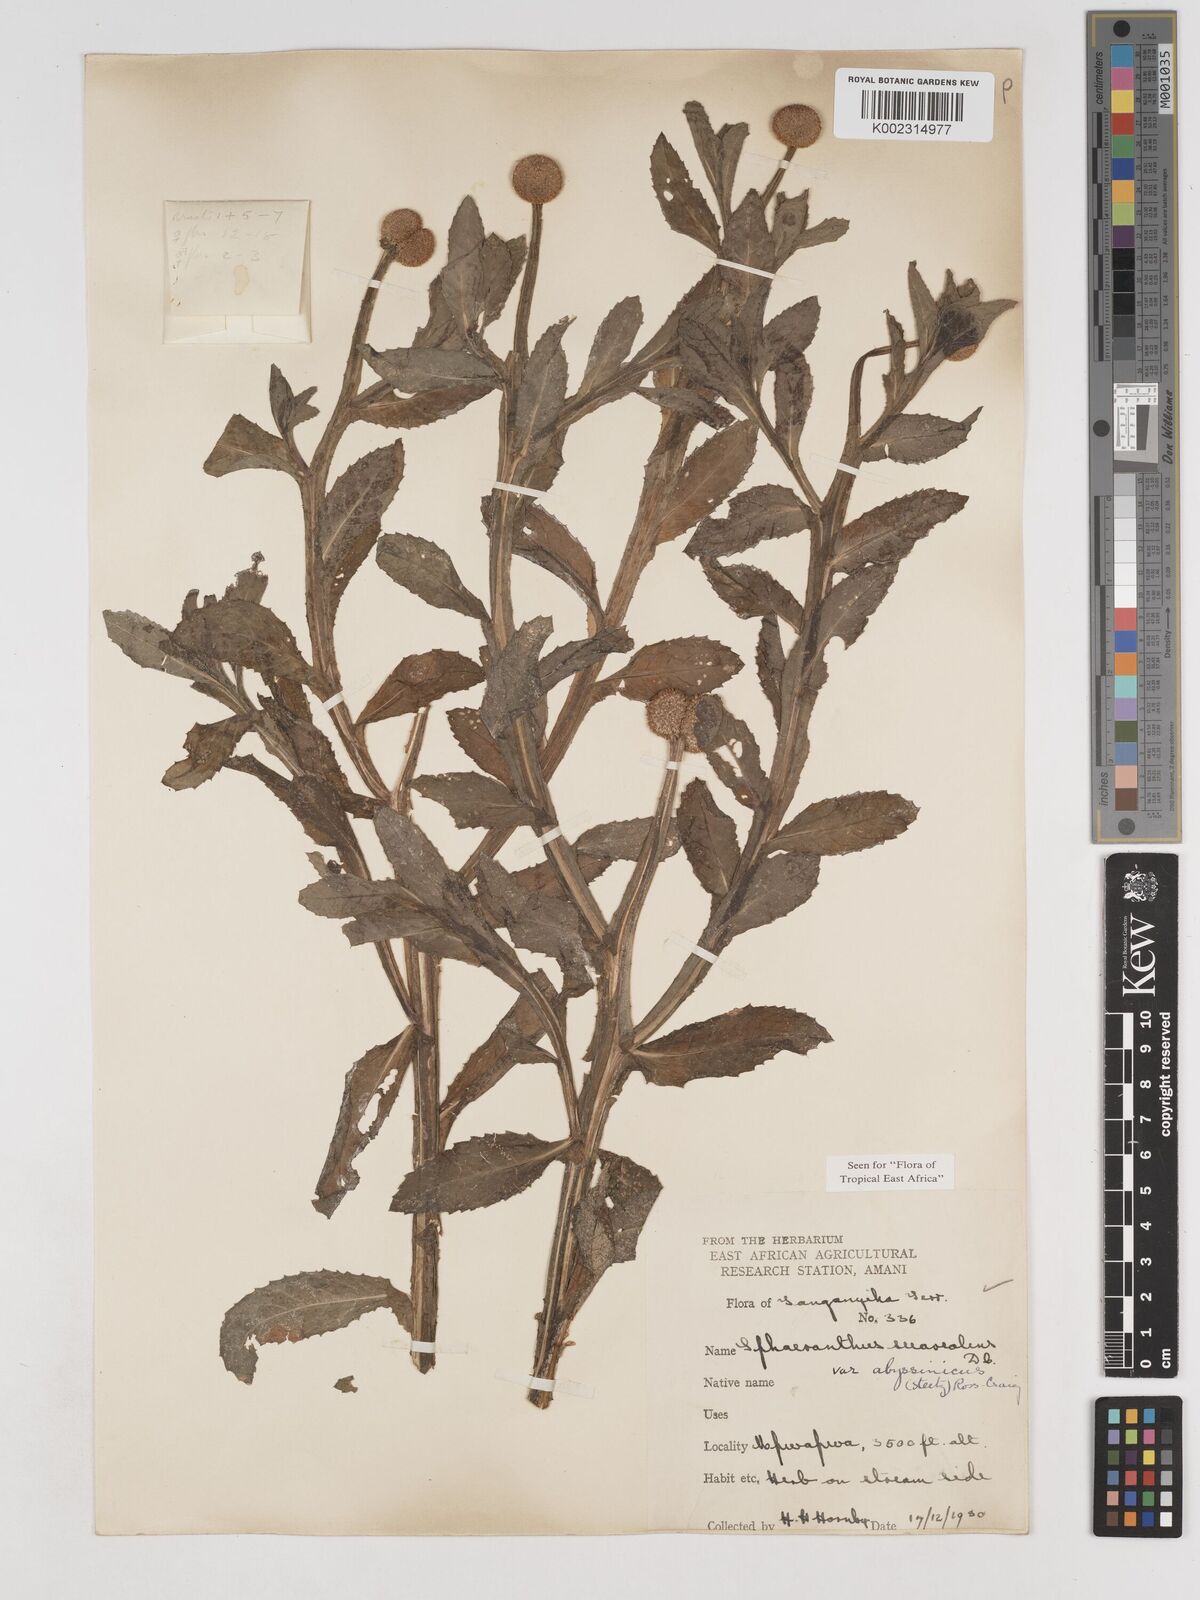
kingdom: Plantae
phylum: Tracheophyta
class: Magnoliopsida
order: Asterales
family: Asteraceae
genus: Sphaeranthus
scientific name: Sphaeranthus suaveolens
